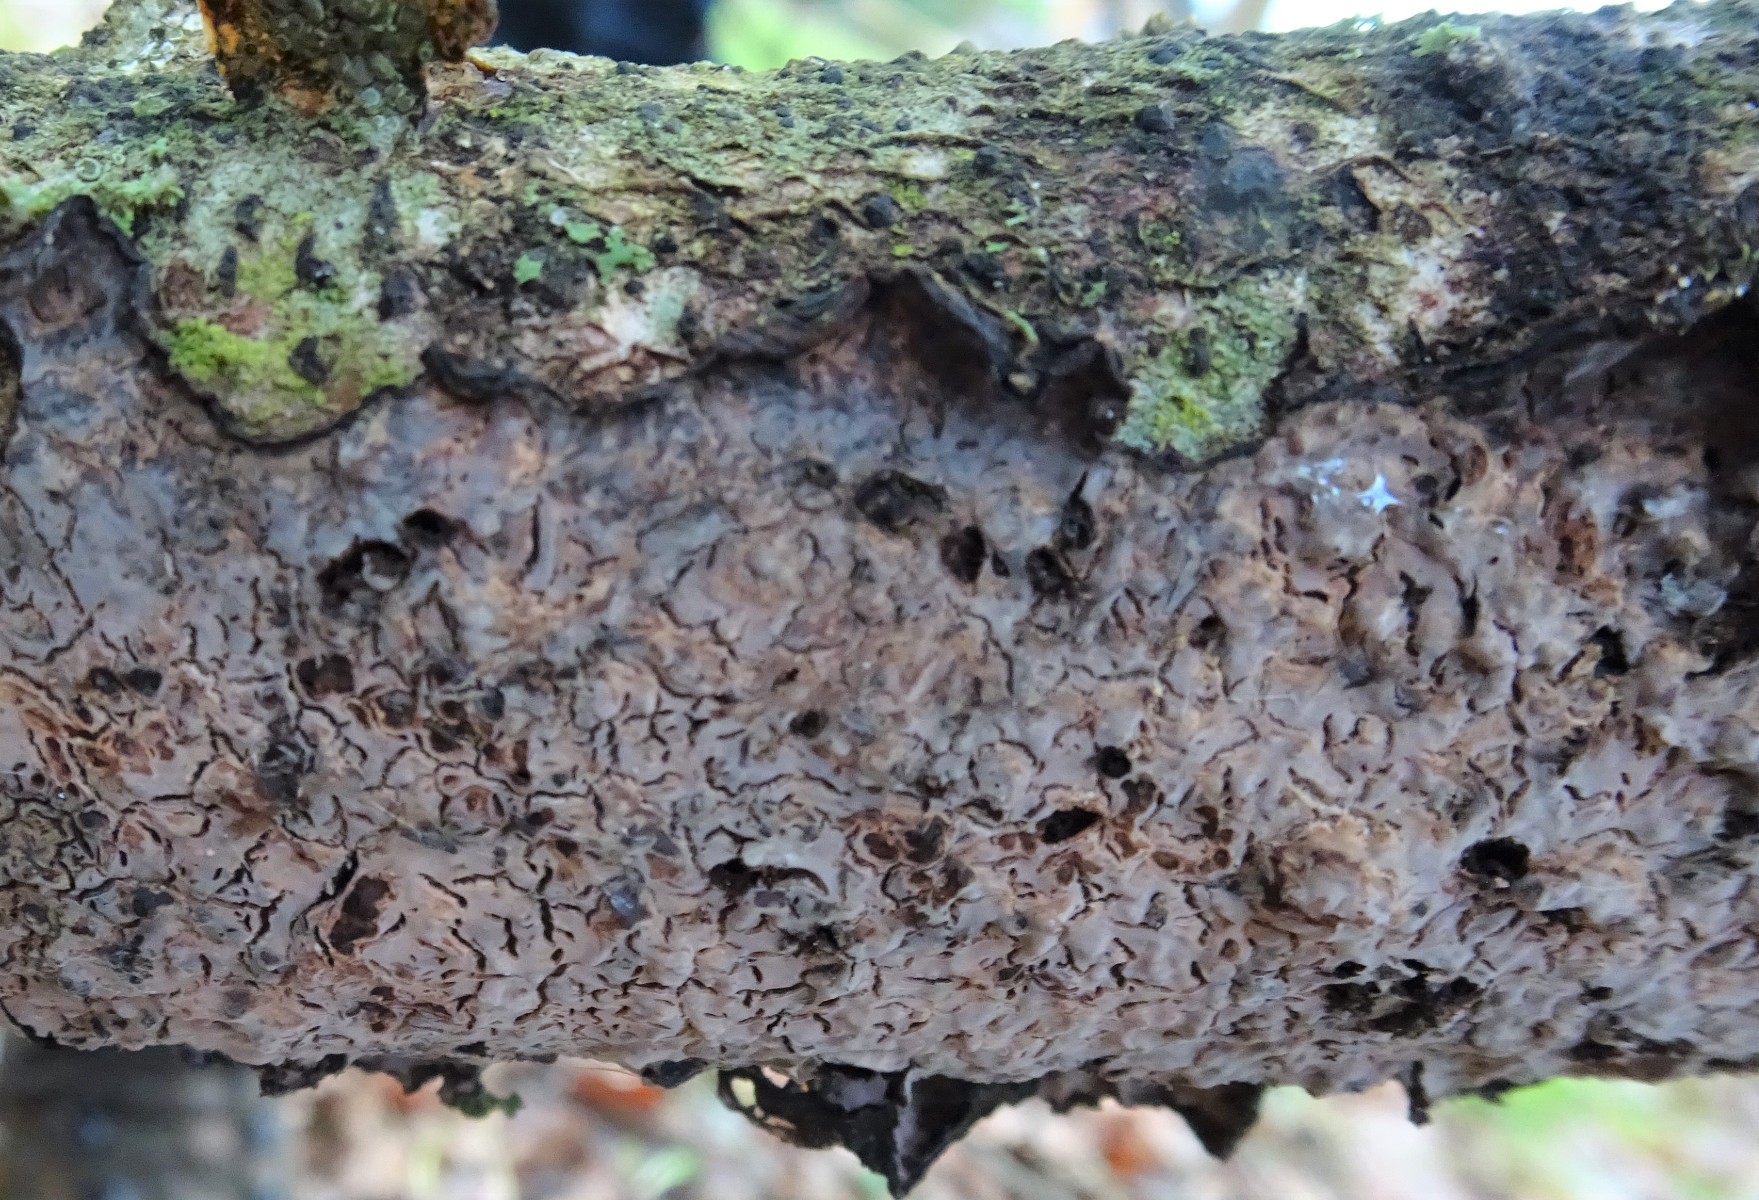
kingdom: Fungi
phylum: Basidiomycota
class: Agaricomycetes
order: Russulales
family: Peniophoraceae
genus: Peniophora
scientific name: Peniophora quercina
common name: ege-voksskind
